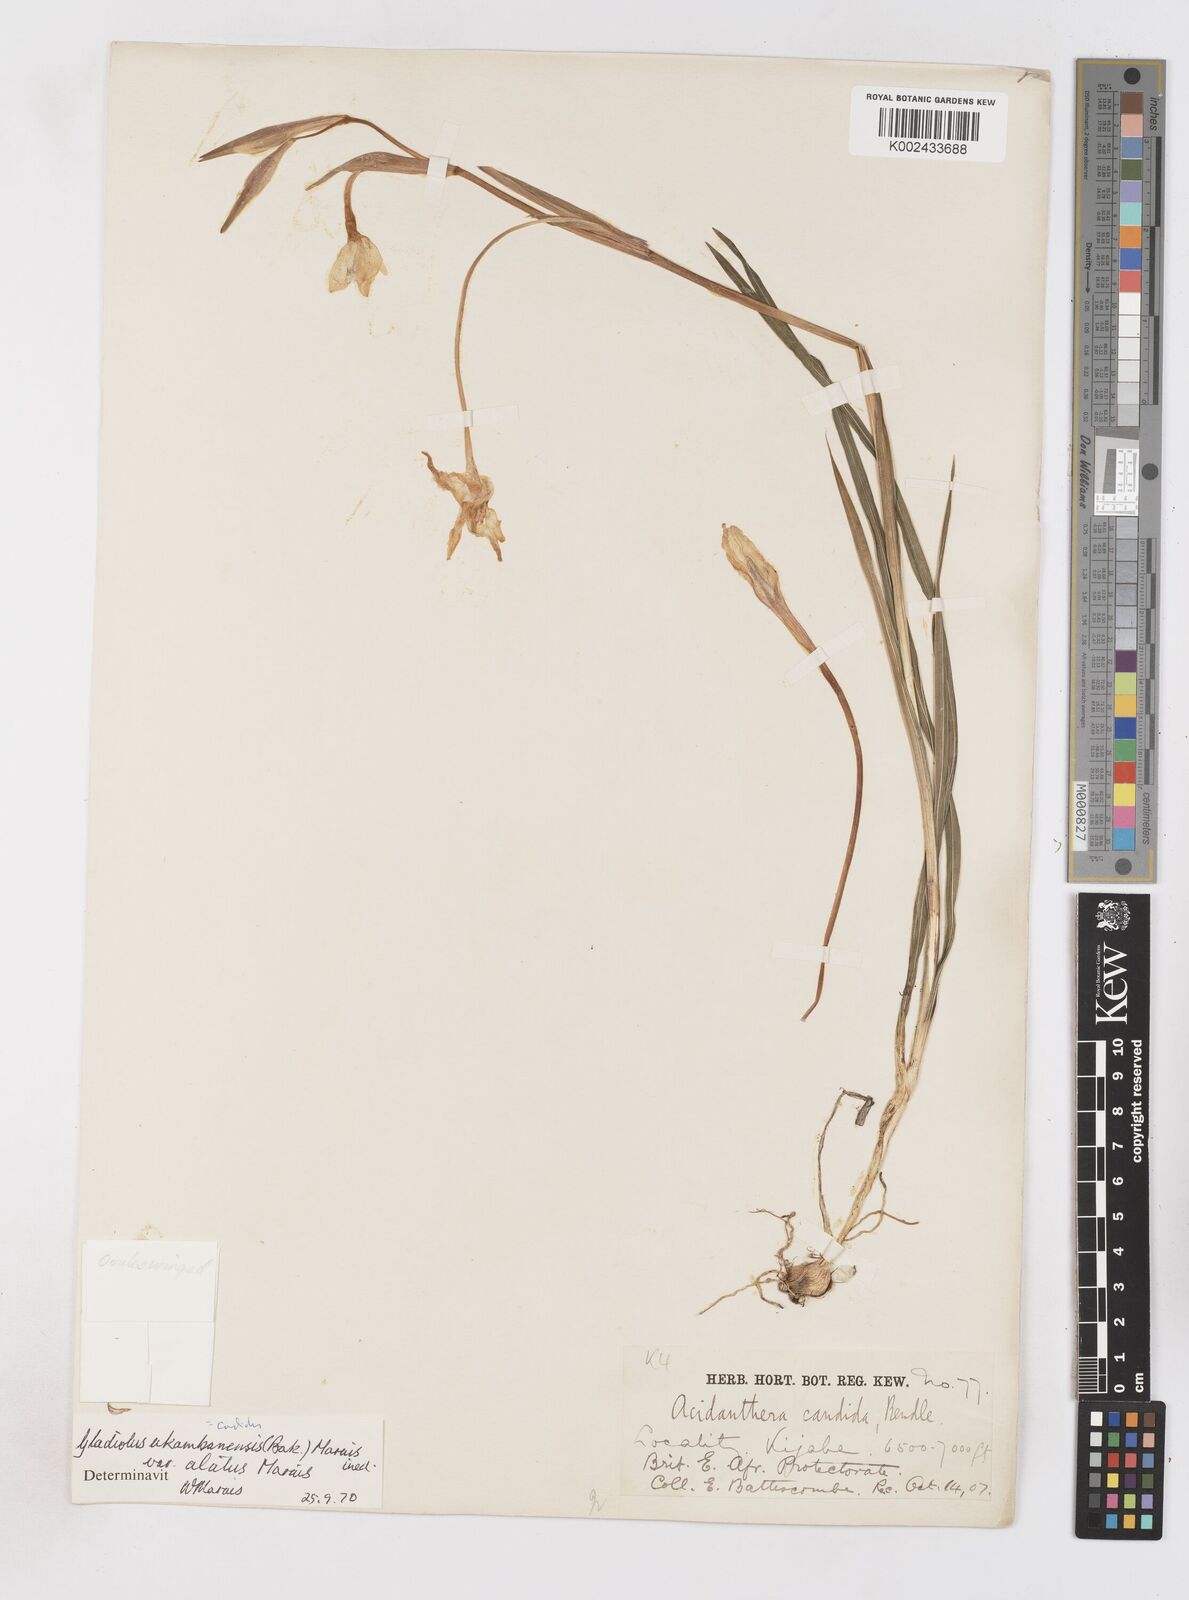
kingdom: Plantae
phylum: Tracheophyta
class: Liliopsida
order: Asparagales
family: Iridaceae
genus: Gladiolus
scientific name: Gladiolus candidus
